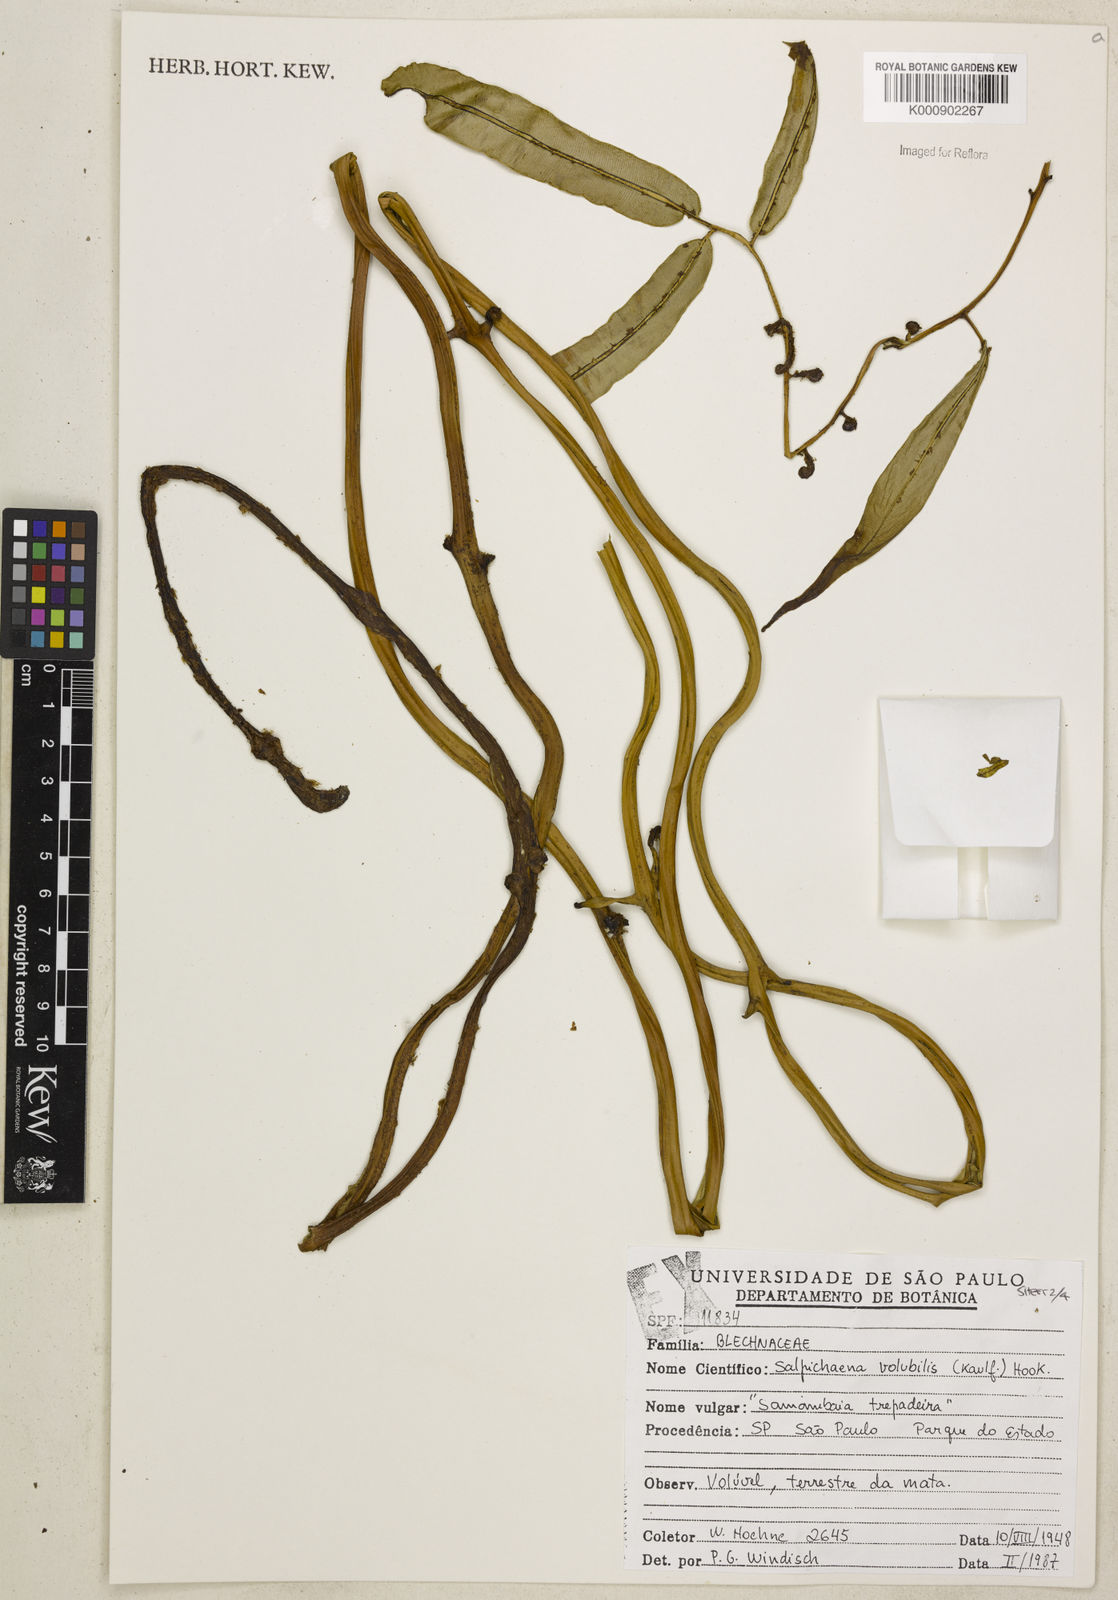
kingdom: Plantae
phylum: Tracheophyta
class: Polypodiopsida
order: Polypodiales
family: Blechnaceae
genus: Salpichlaena
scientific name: Salpichlaena volubilis
